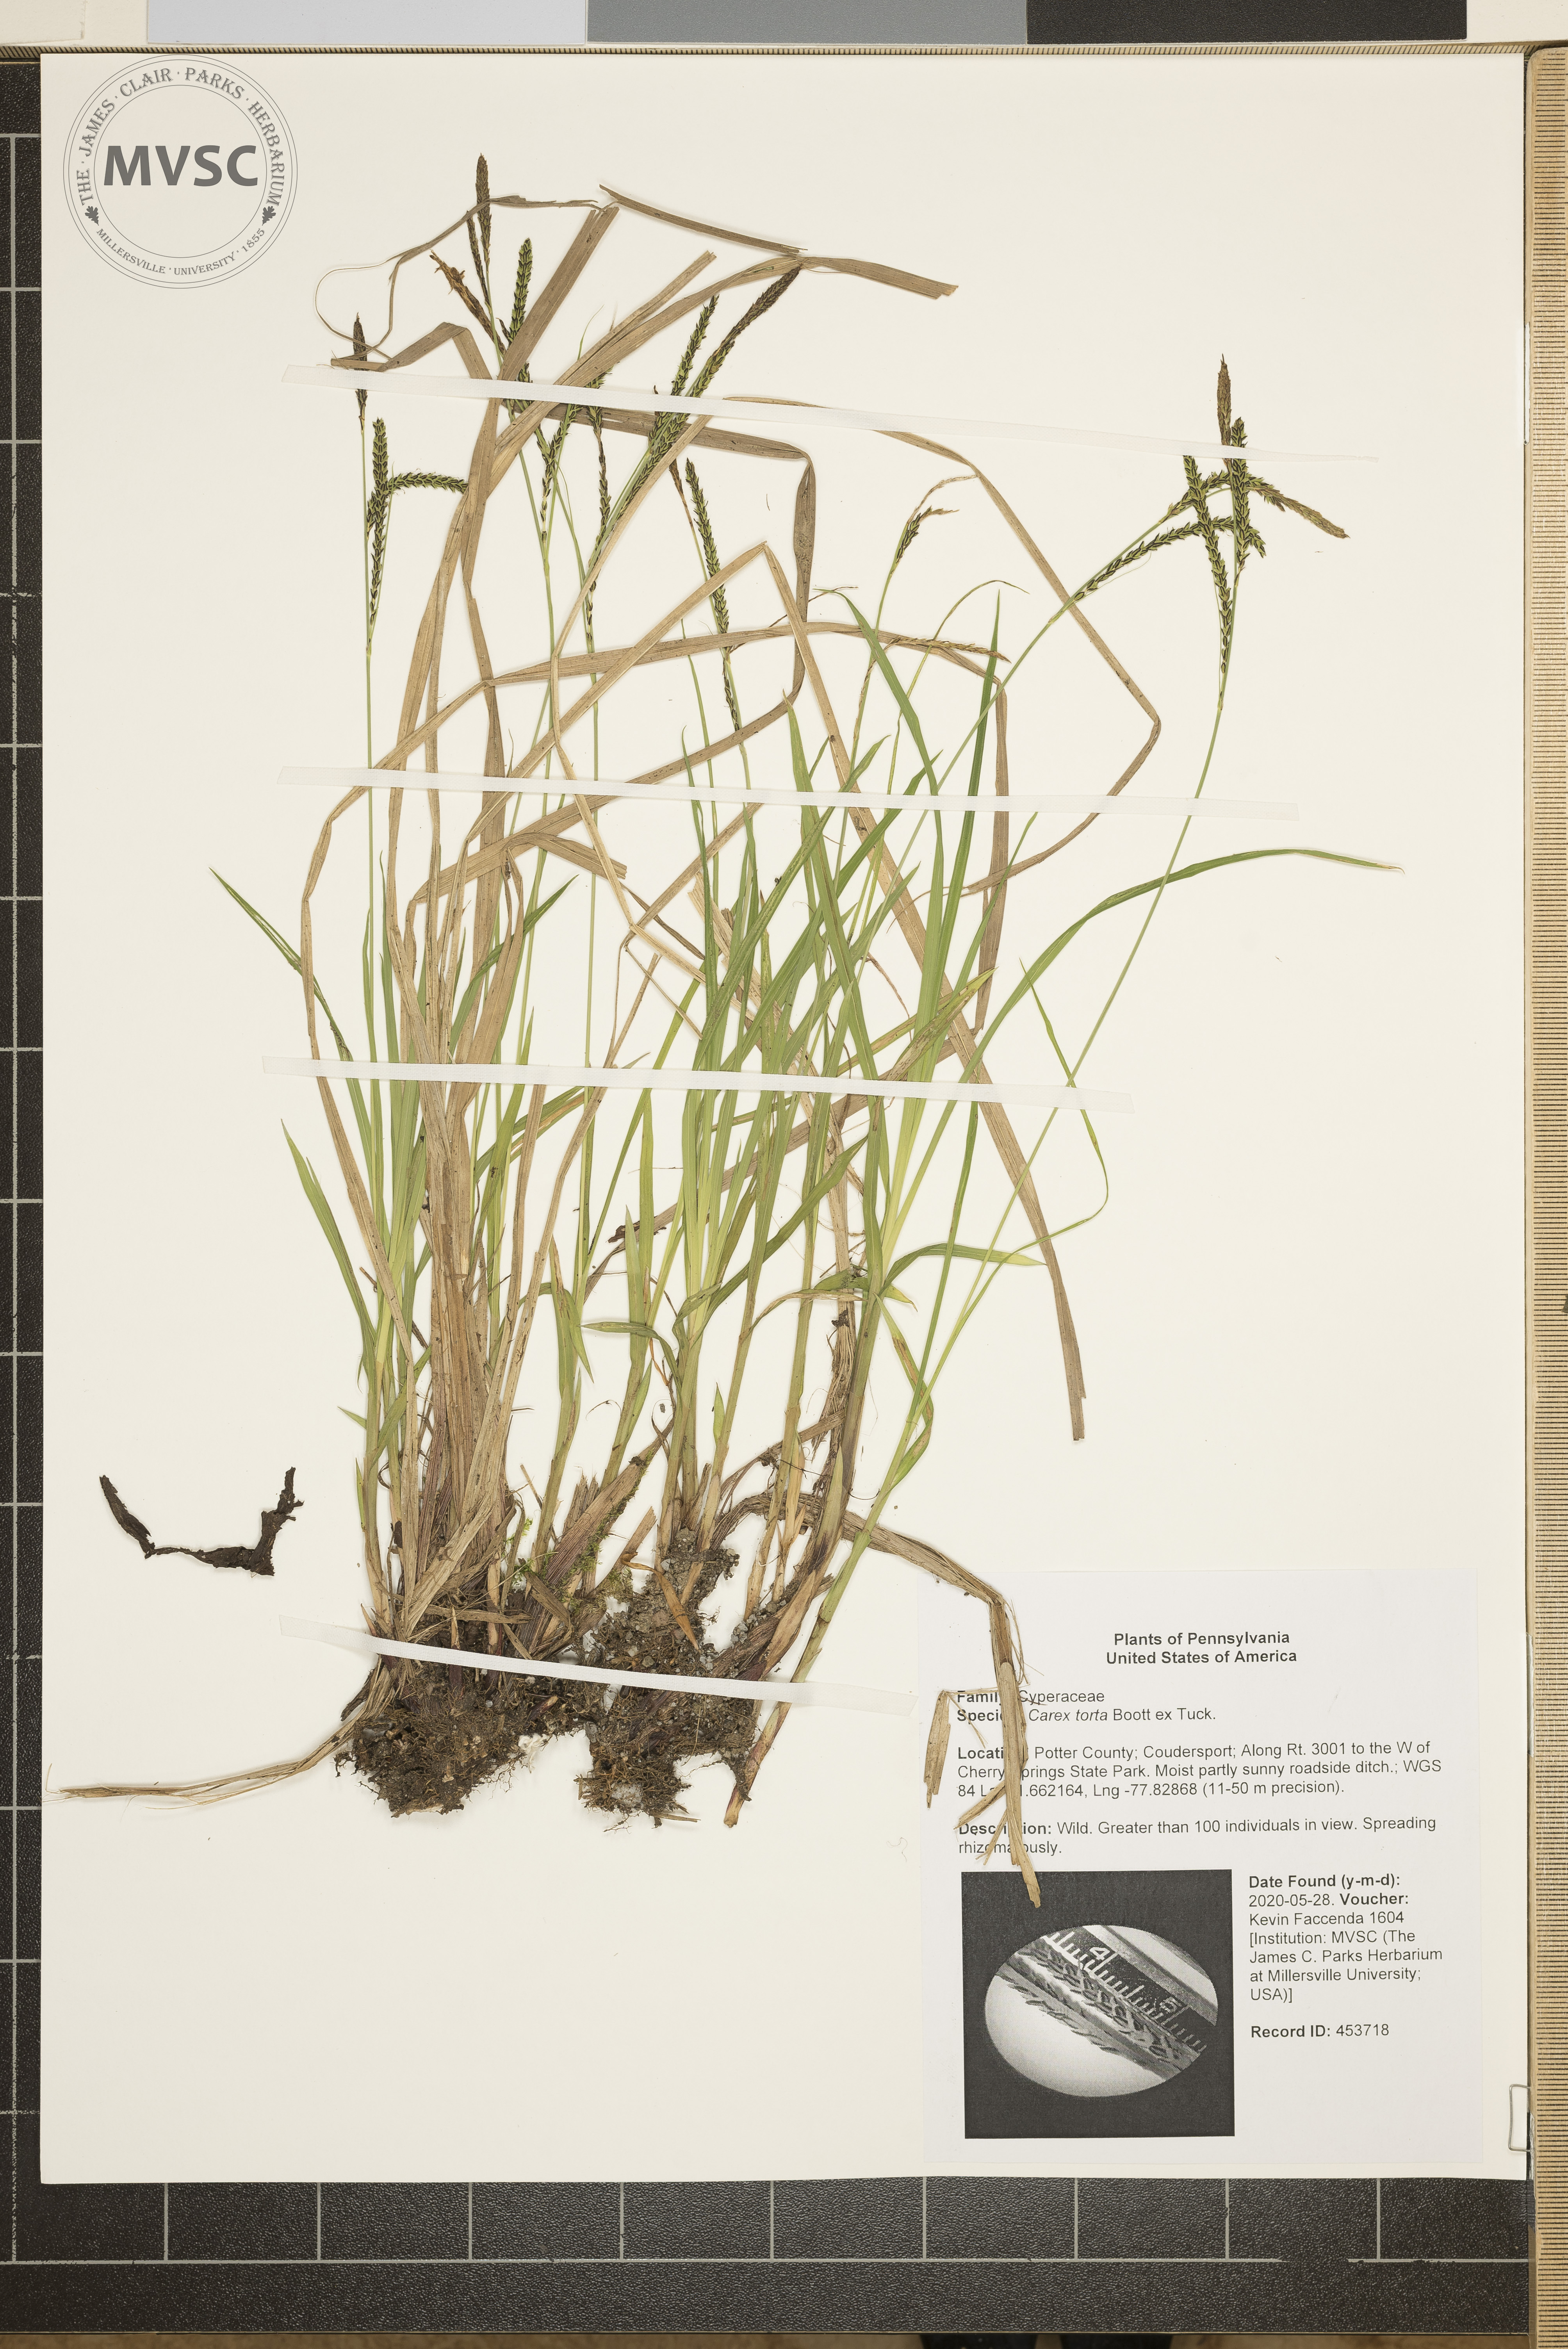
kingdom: Plantae
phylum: Tracheophyta
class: Liliopsida
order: Poales
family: Cyperaceae
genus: Carex
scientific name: Carex torta
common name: Twisted sedge
